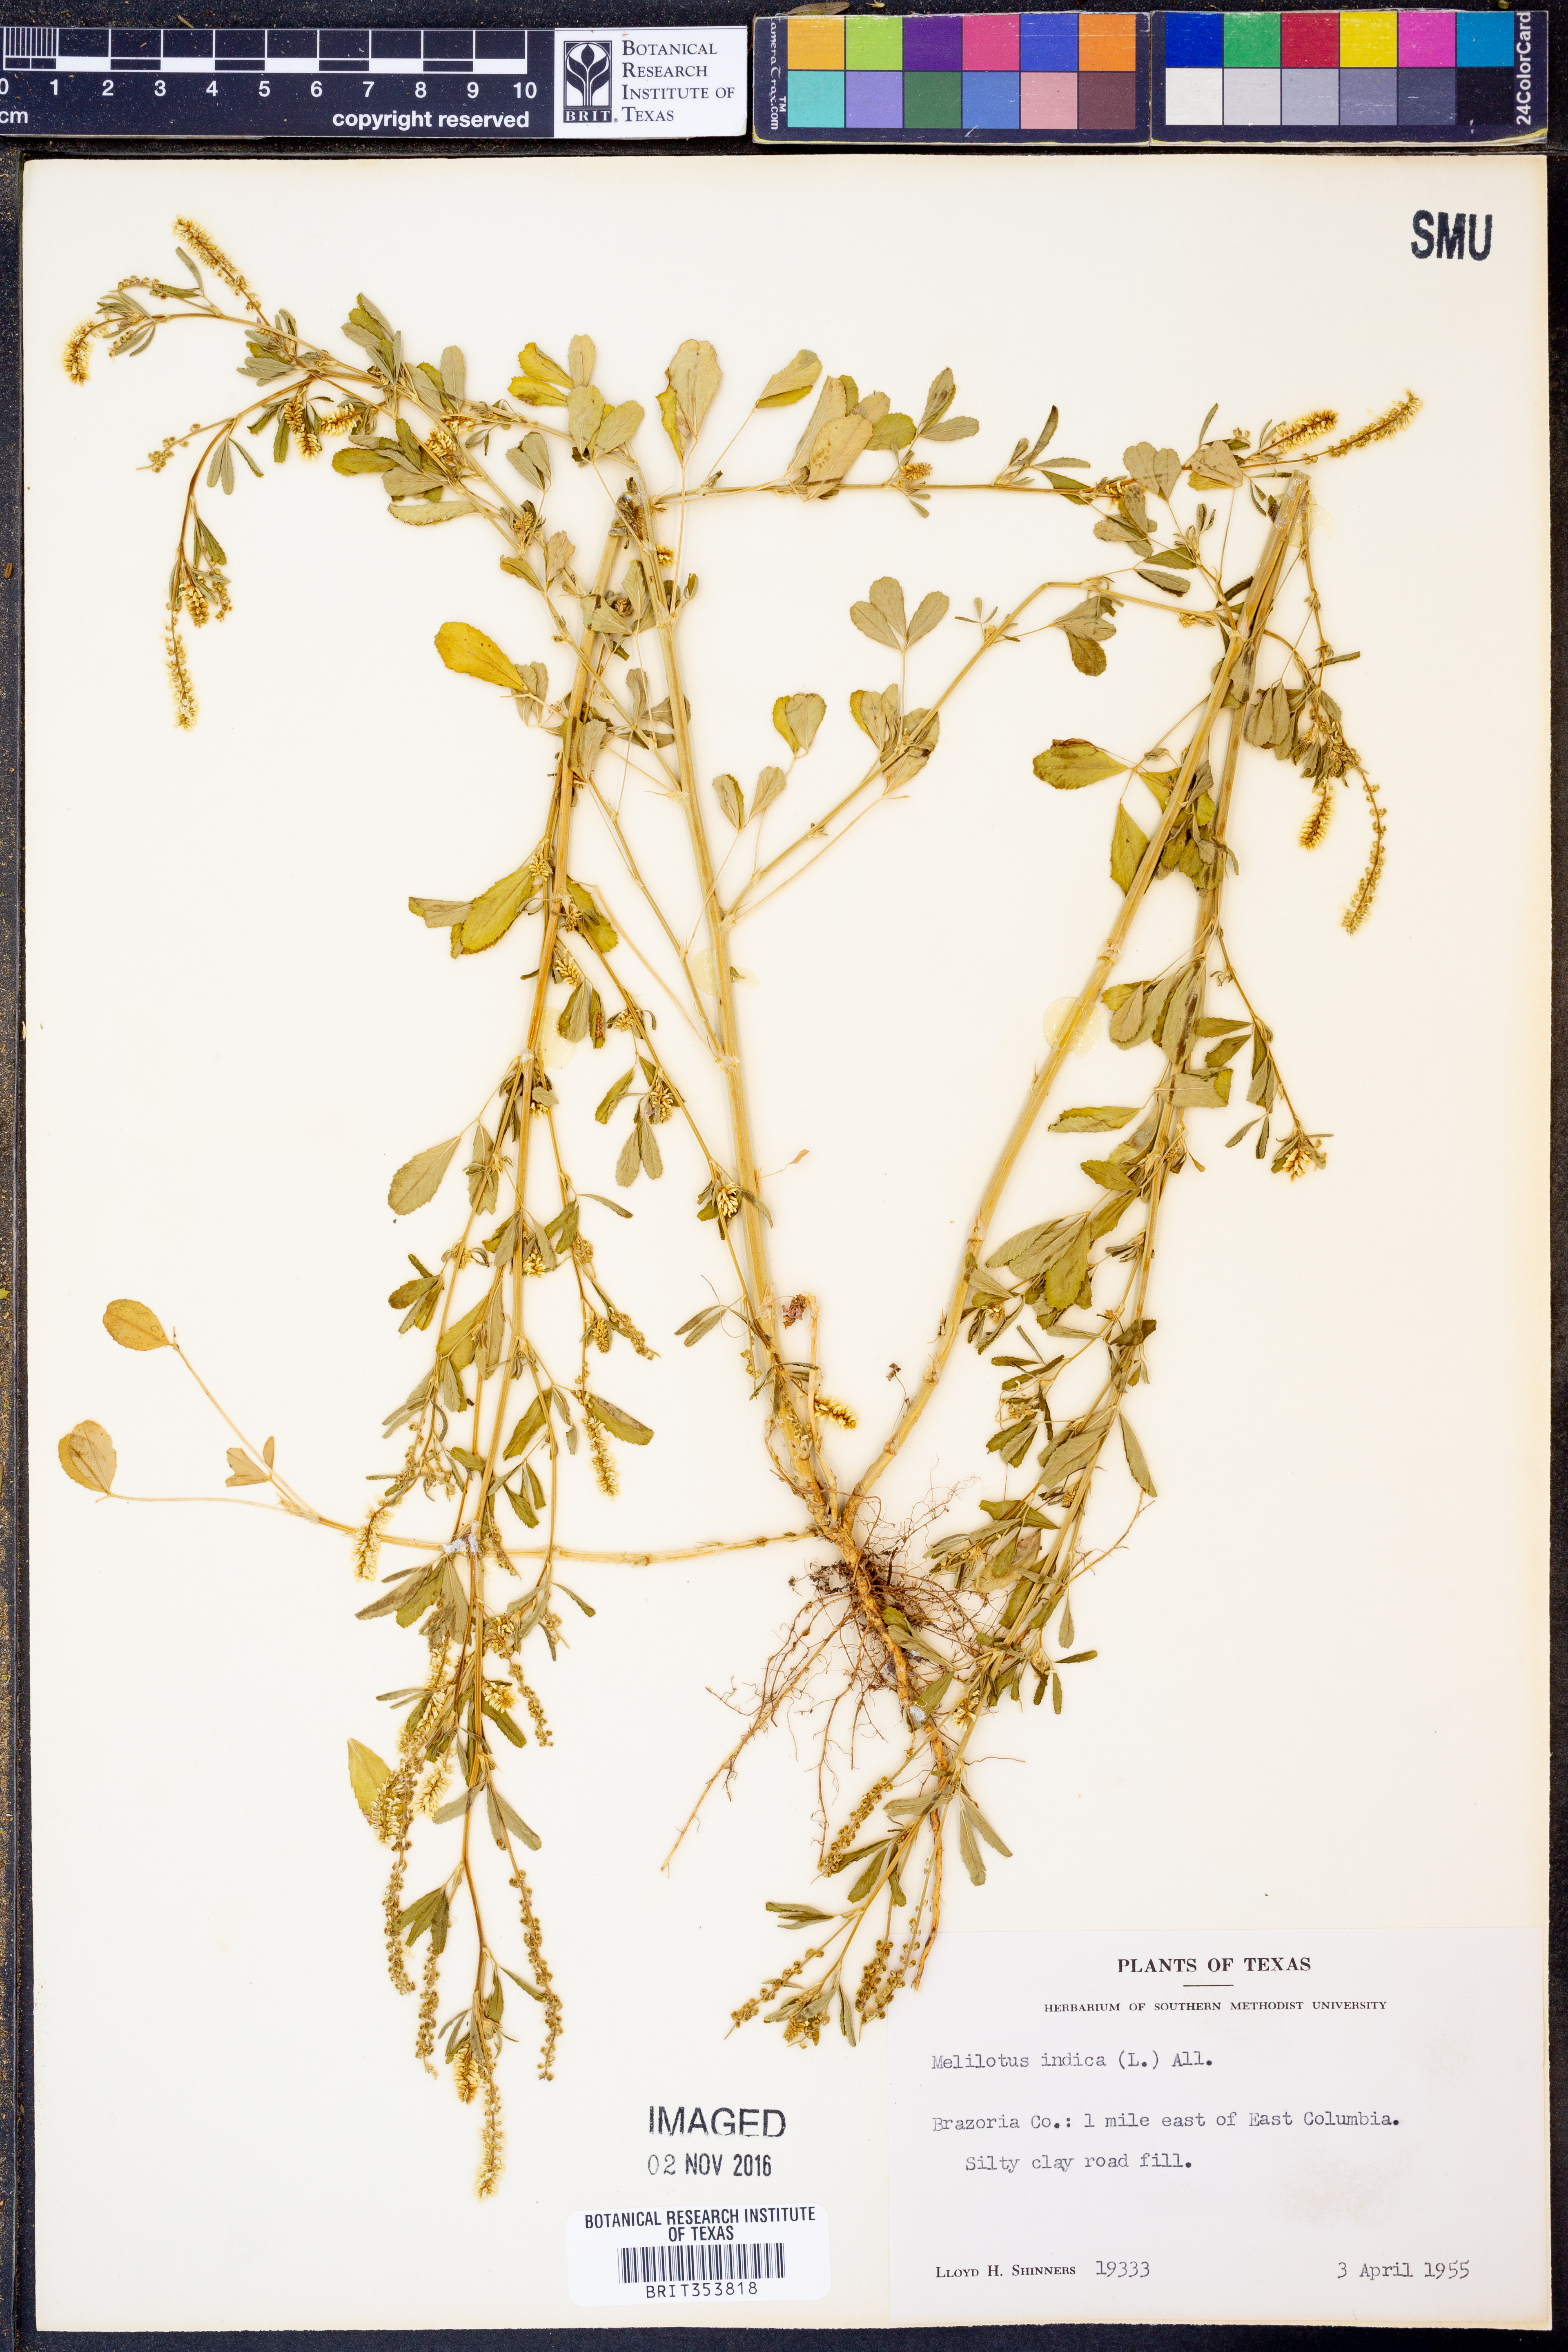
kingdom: Plantae
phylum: Tracheophyta
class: Magnoliopsida
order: Fabales
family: Fabaceae
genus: Melilotus
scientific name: Melilotus indicus
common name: Small melilot
